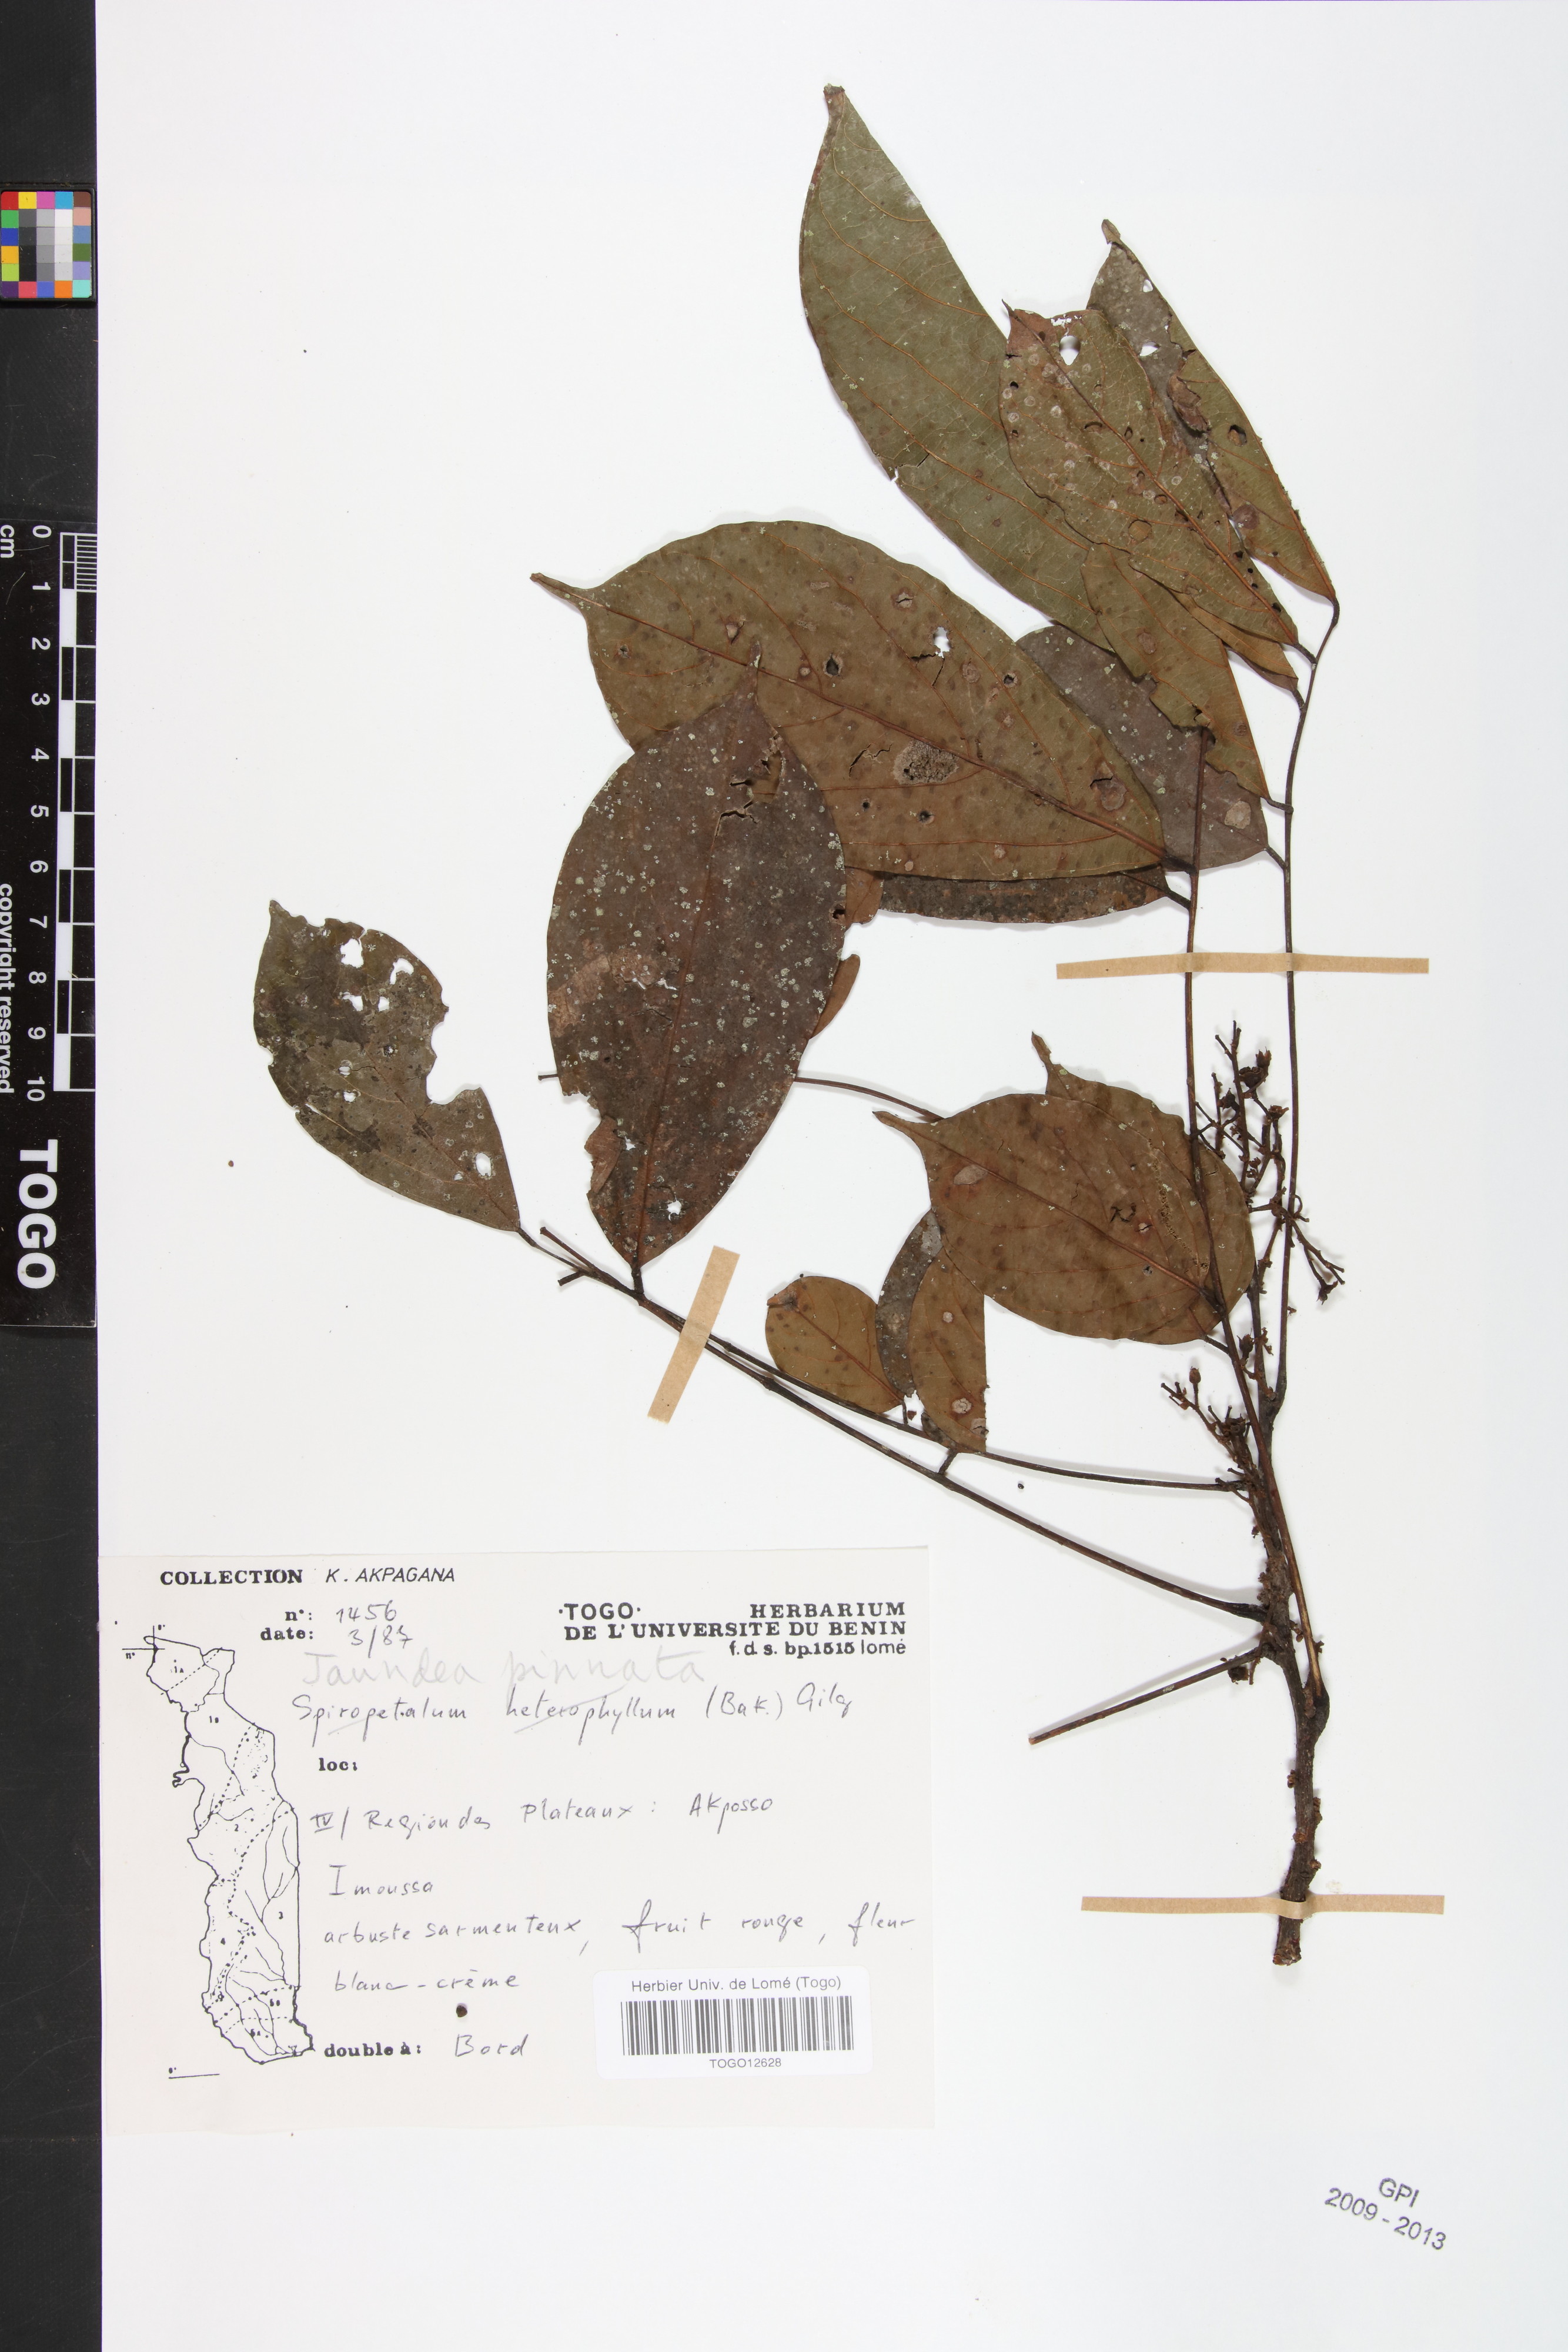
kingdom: Plantae
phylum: Tracheophyta
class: Magnoliopsida
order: Oxalidales
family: Connaraceae
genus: Rourea
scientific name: Rourea thomsonii
